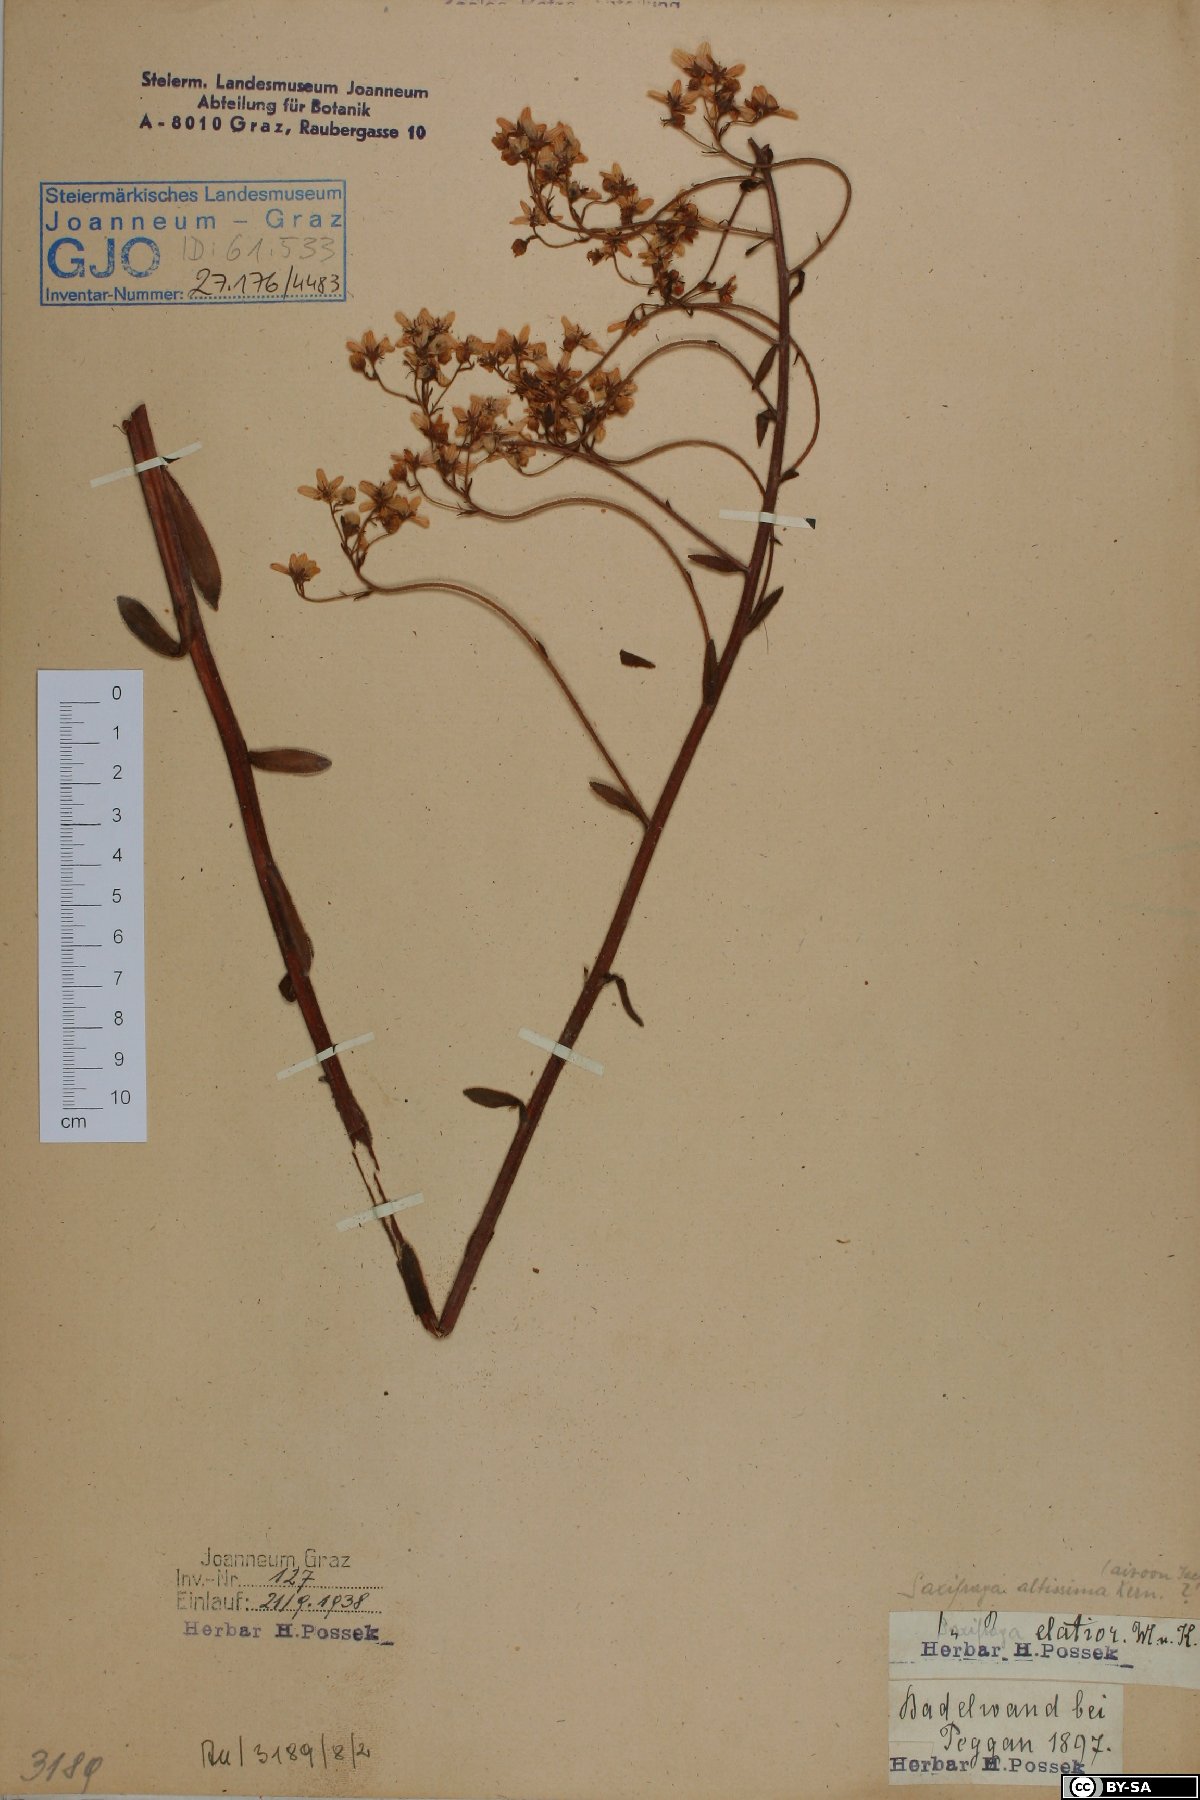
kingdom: Plantae
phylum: Tracheophyta
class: Magnoliopsida
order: Saxifragales
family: Saxifragaceae
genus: Saxifraga
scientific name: Saxifraga hostii
